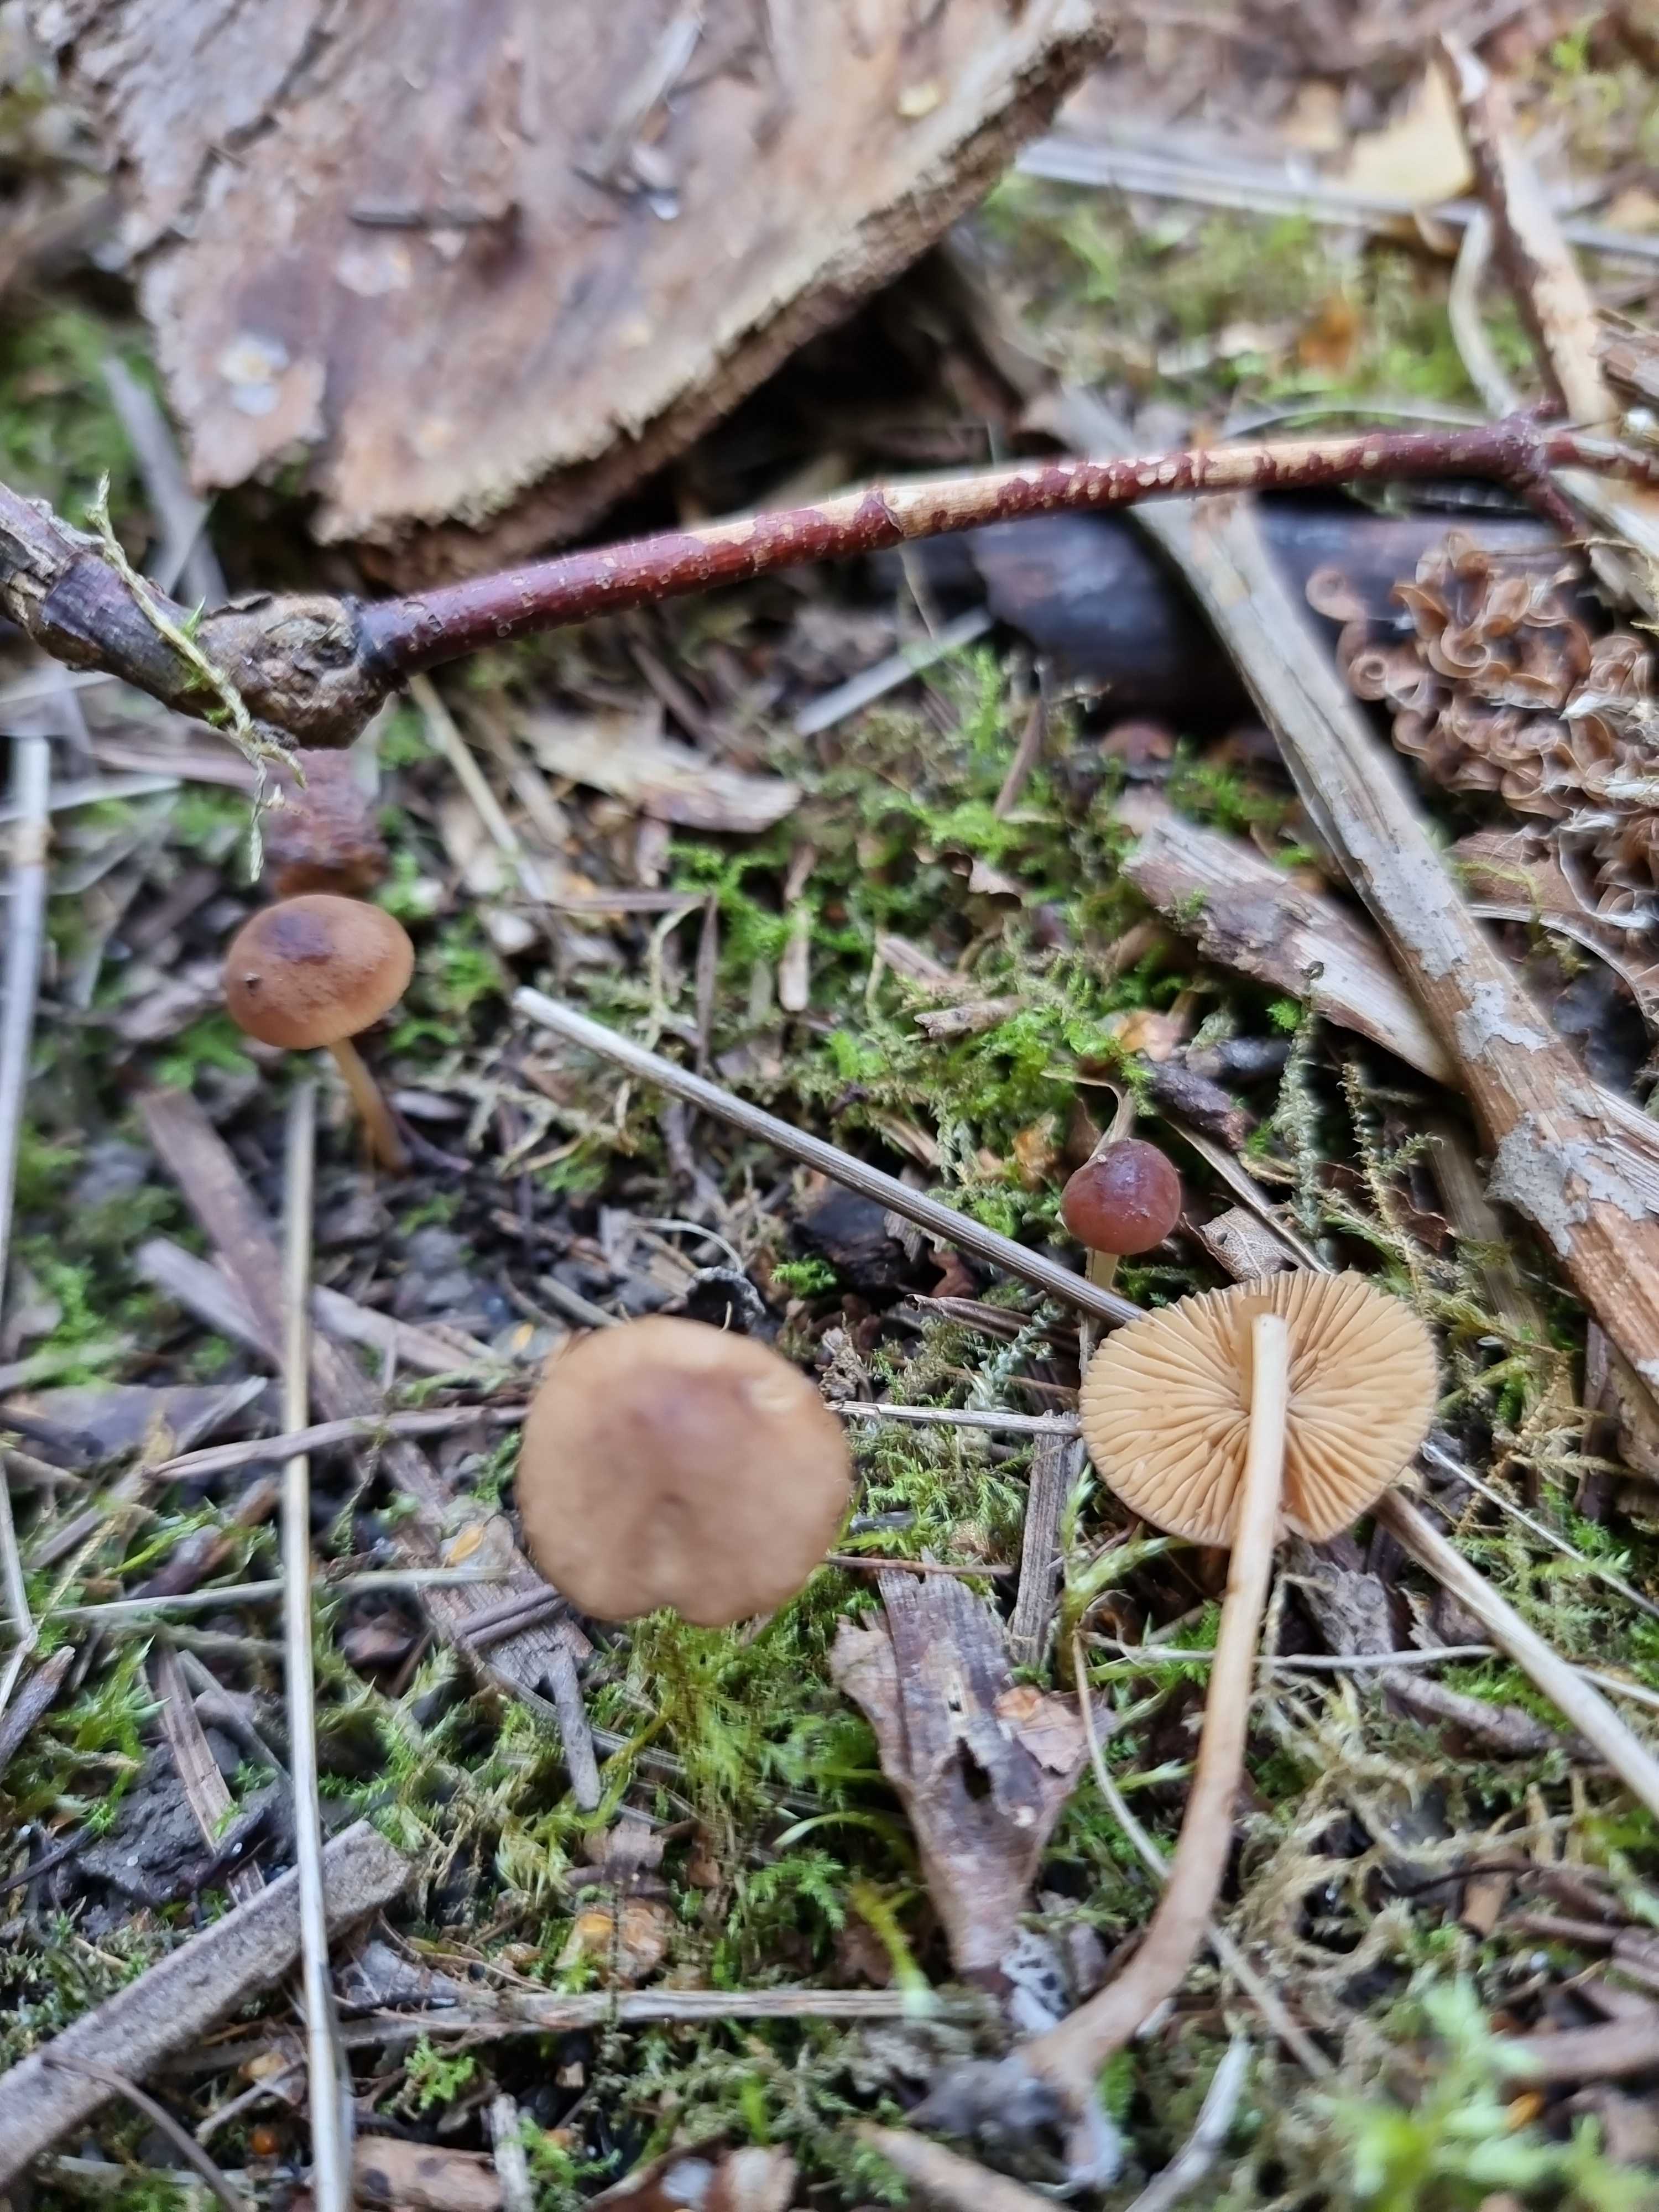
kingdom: Fungi
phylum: Basidiomycota
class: Agaricomycetes
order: Agaricales
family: Bolbitiaceae
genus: Conocybe
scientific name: Conocybe
